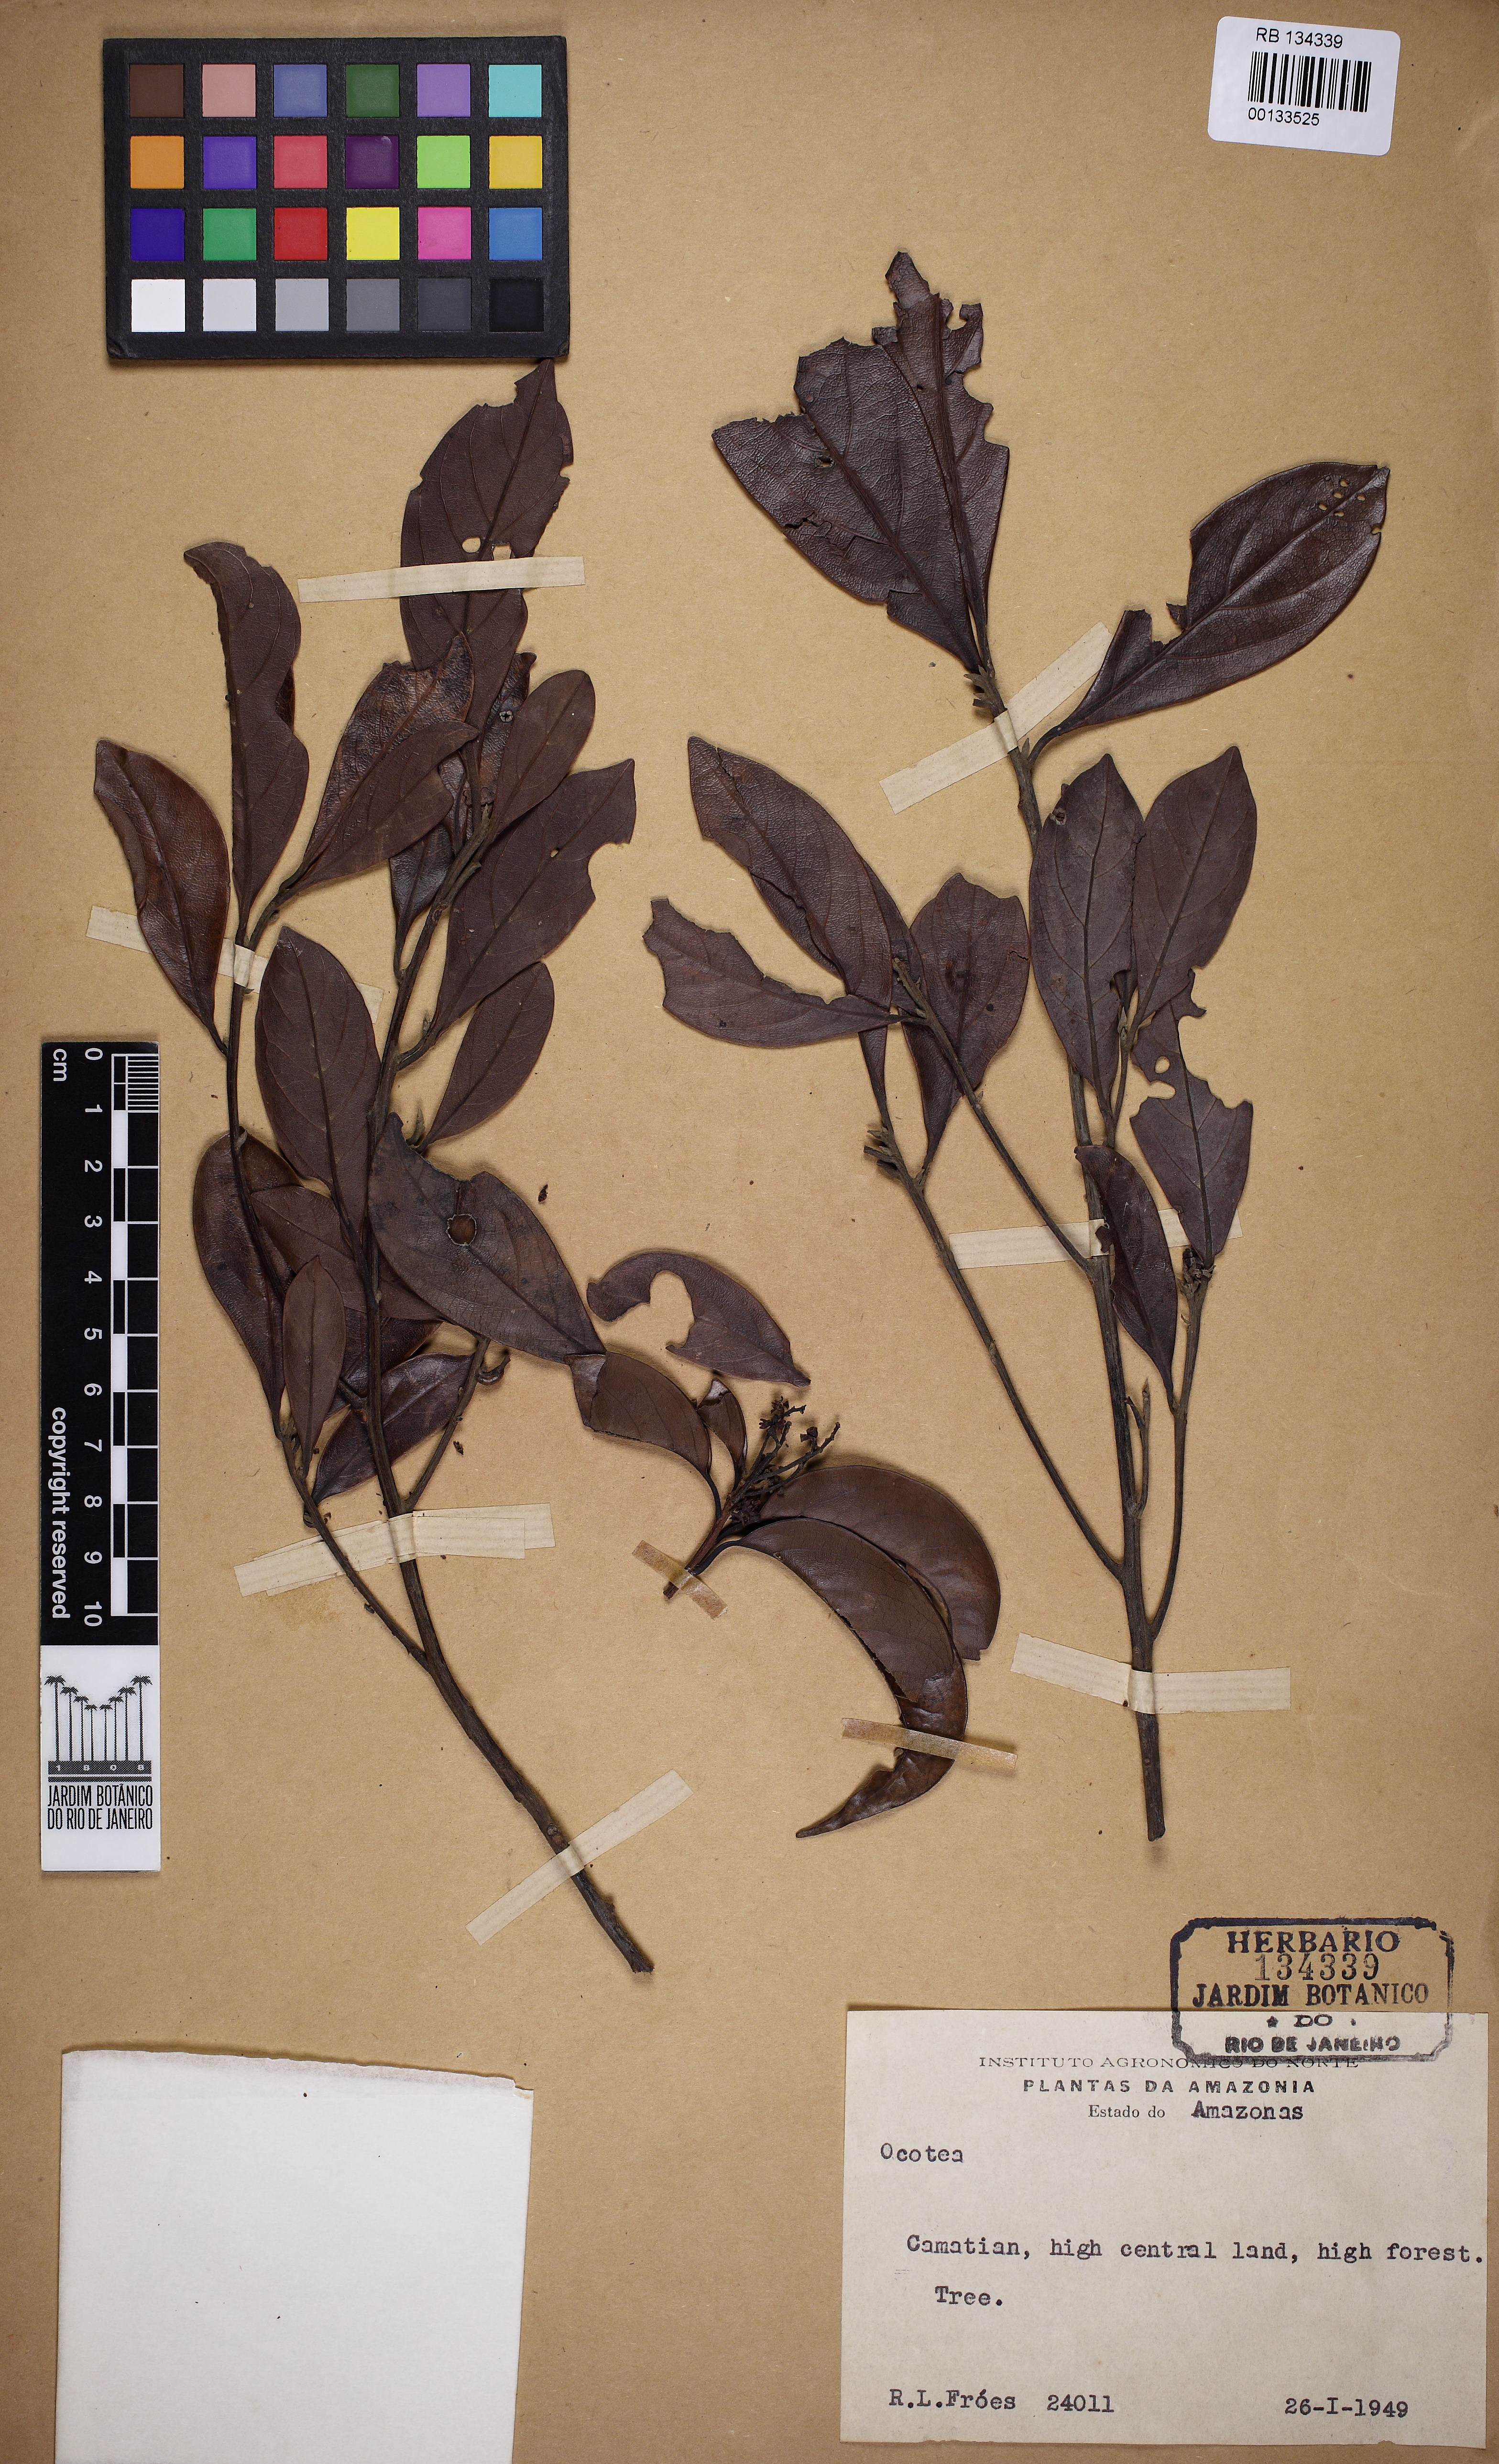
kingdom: Plantae
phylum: Tracheophyta
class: Magnoliopsida
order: Laurales
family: Lauraceae
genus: Ocotea
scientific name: Ocotea
